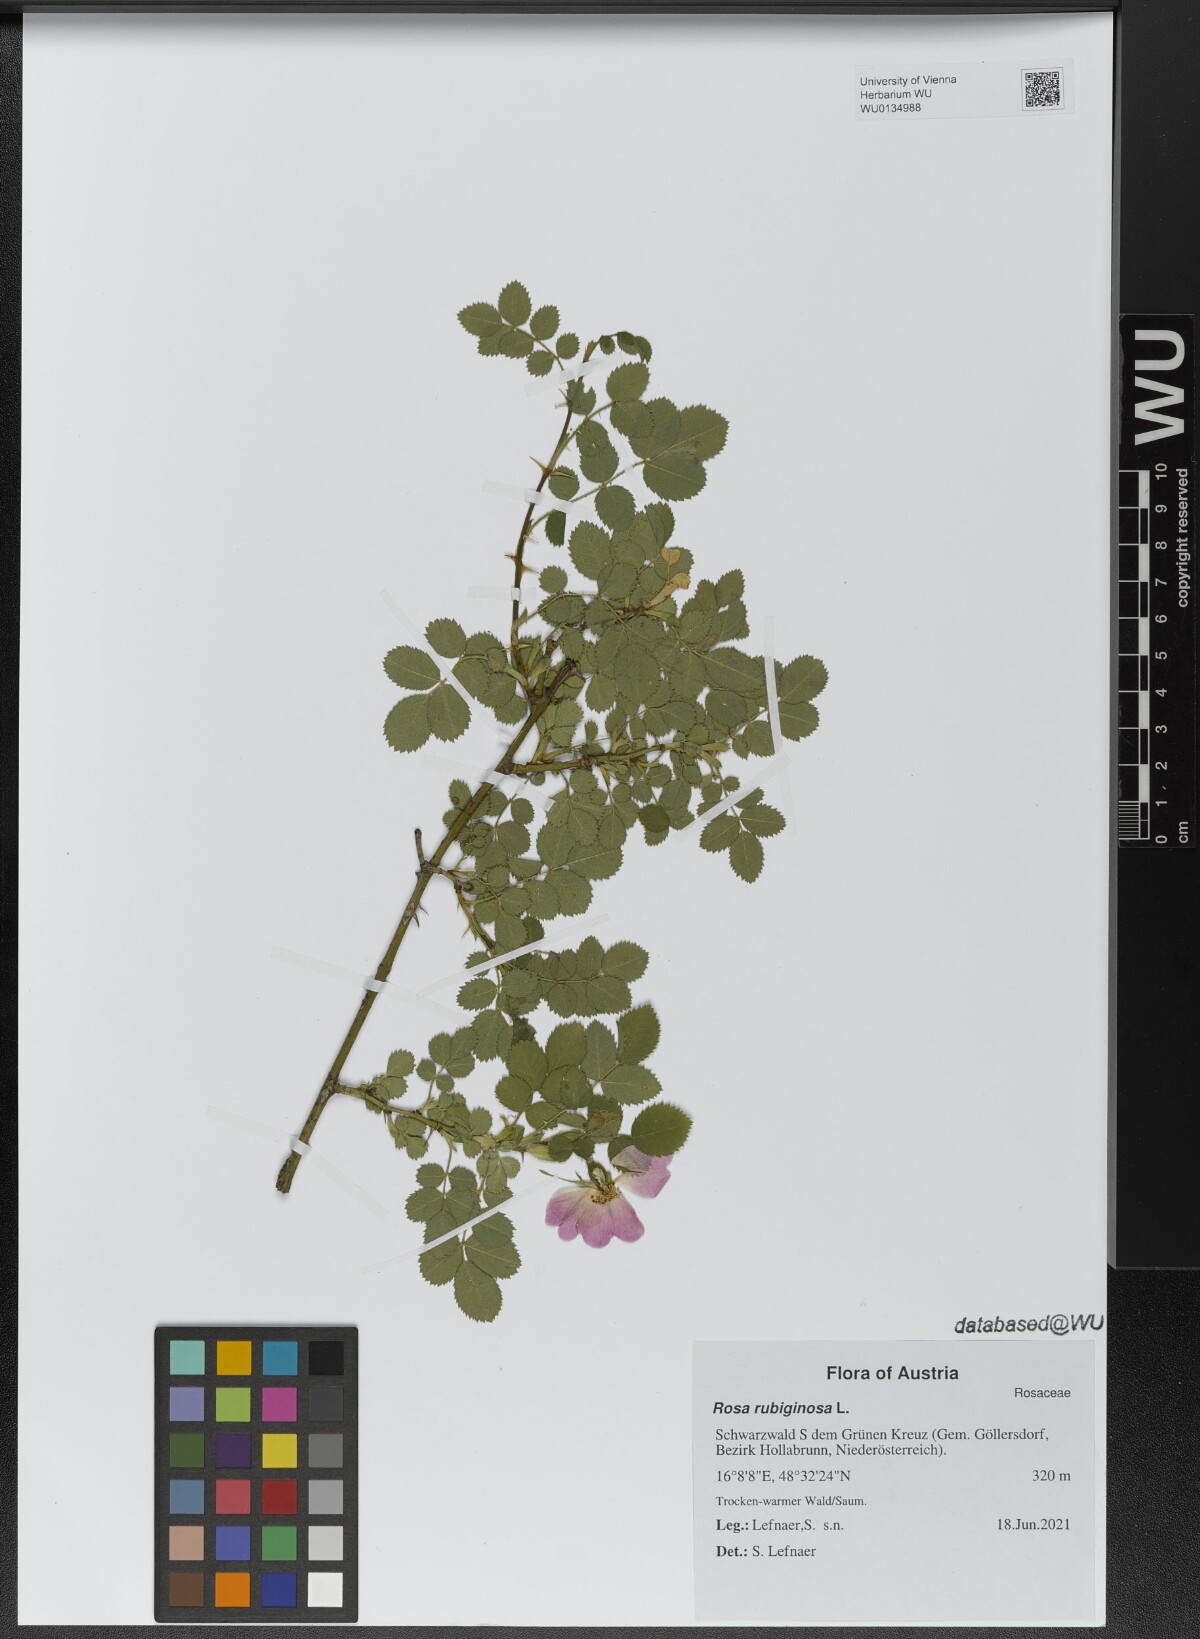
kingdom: Plantae
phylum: Tracheophyta
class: Magnoliopsida
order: Rosales
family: Rosaceae
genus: Rosa
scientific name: Rosa rubiginosa
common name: Sweet-briar
